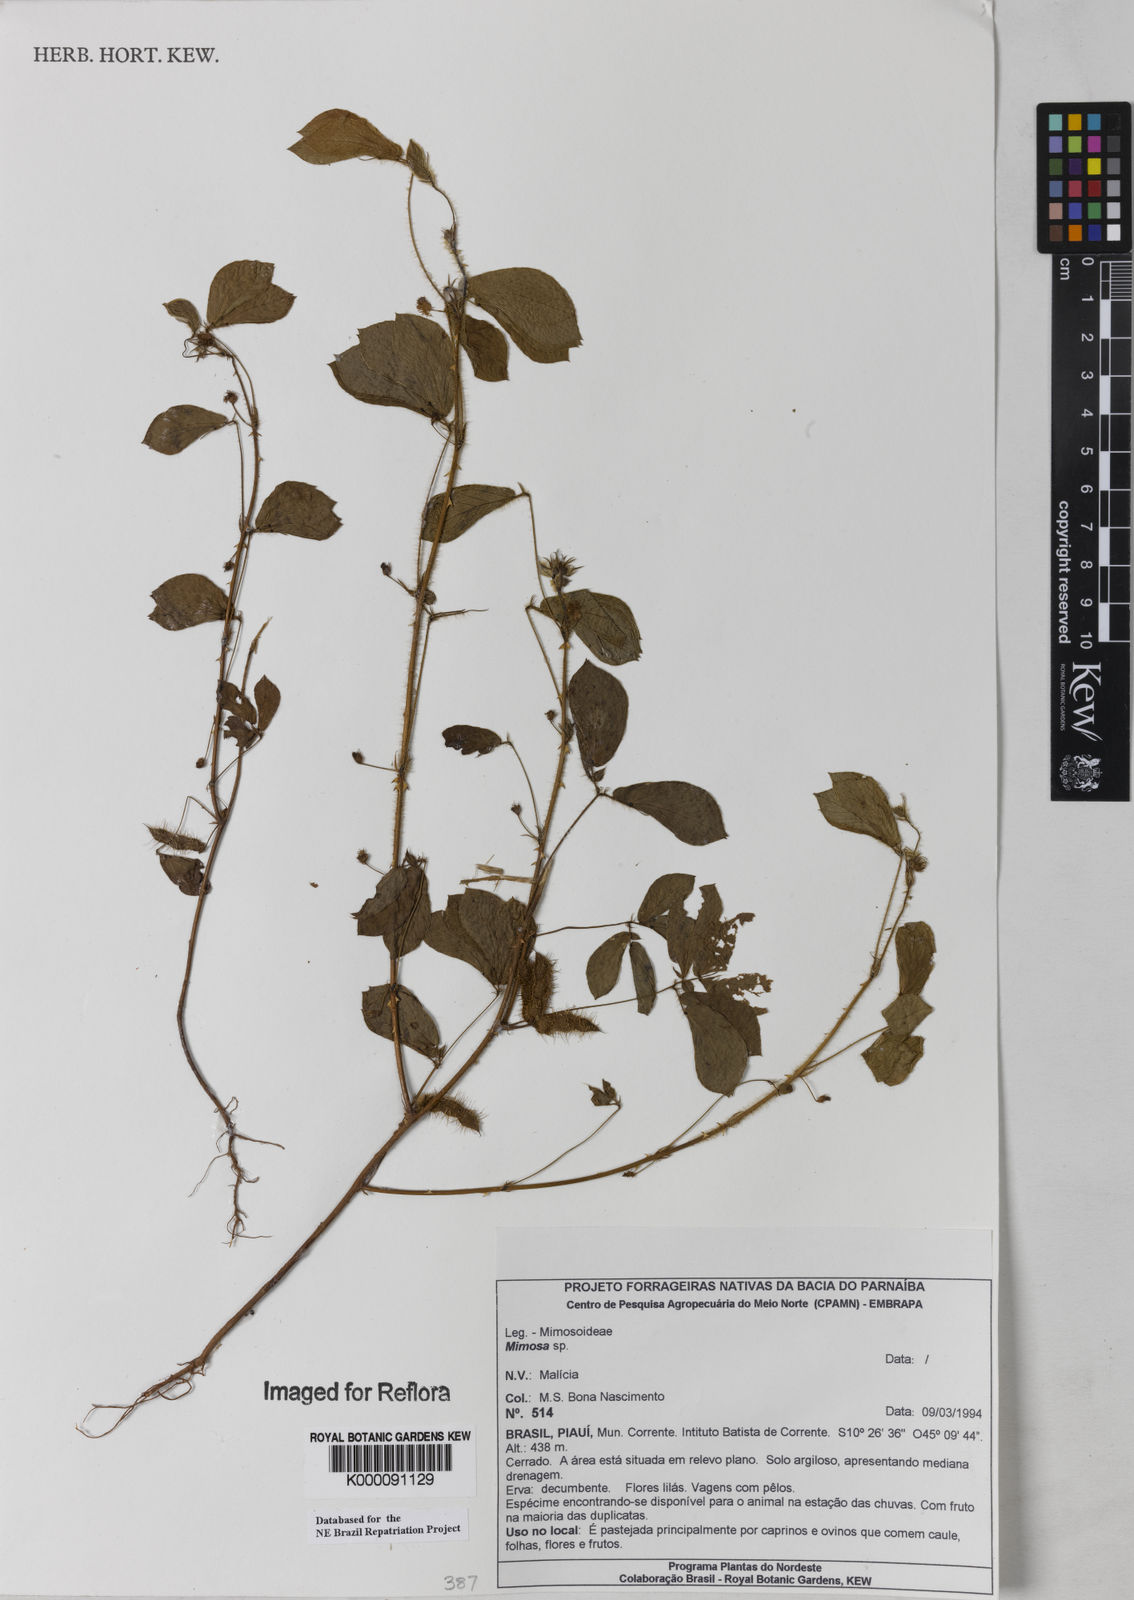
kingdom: Plantae
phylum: Tracheophyta
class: Magnoliopsida
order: Fabales
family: Fabaceae
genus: Mimosa
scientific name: Mimosa
